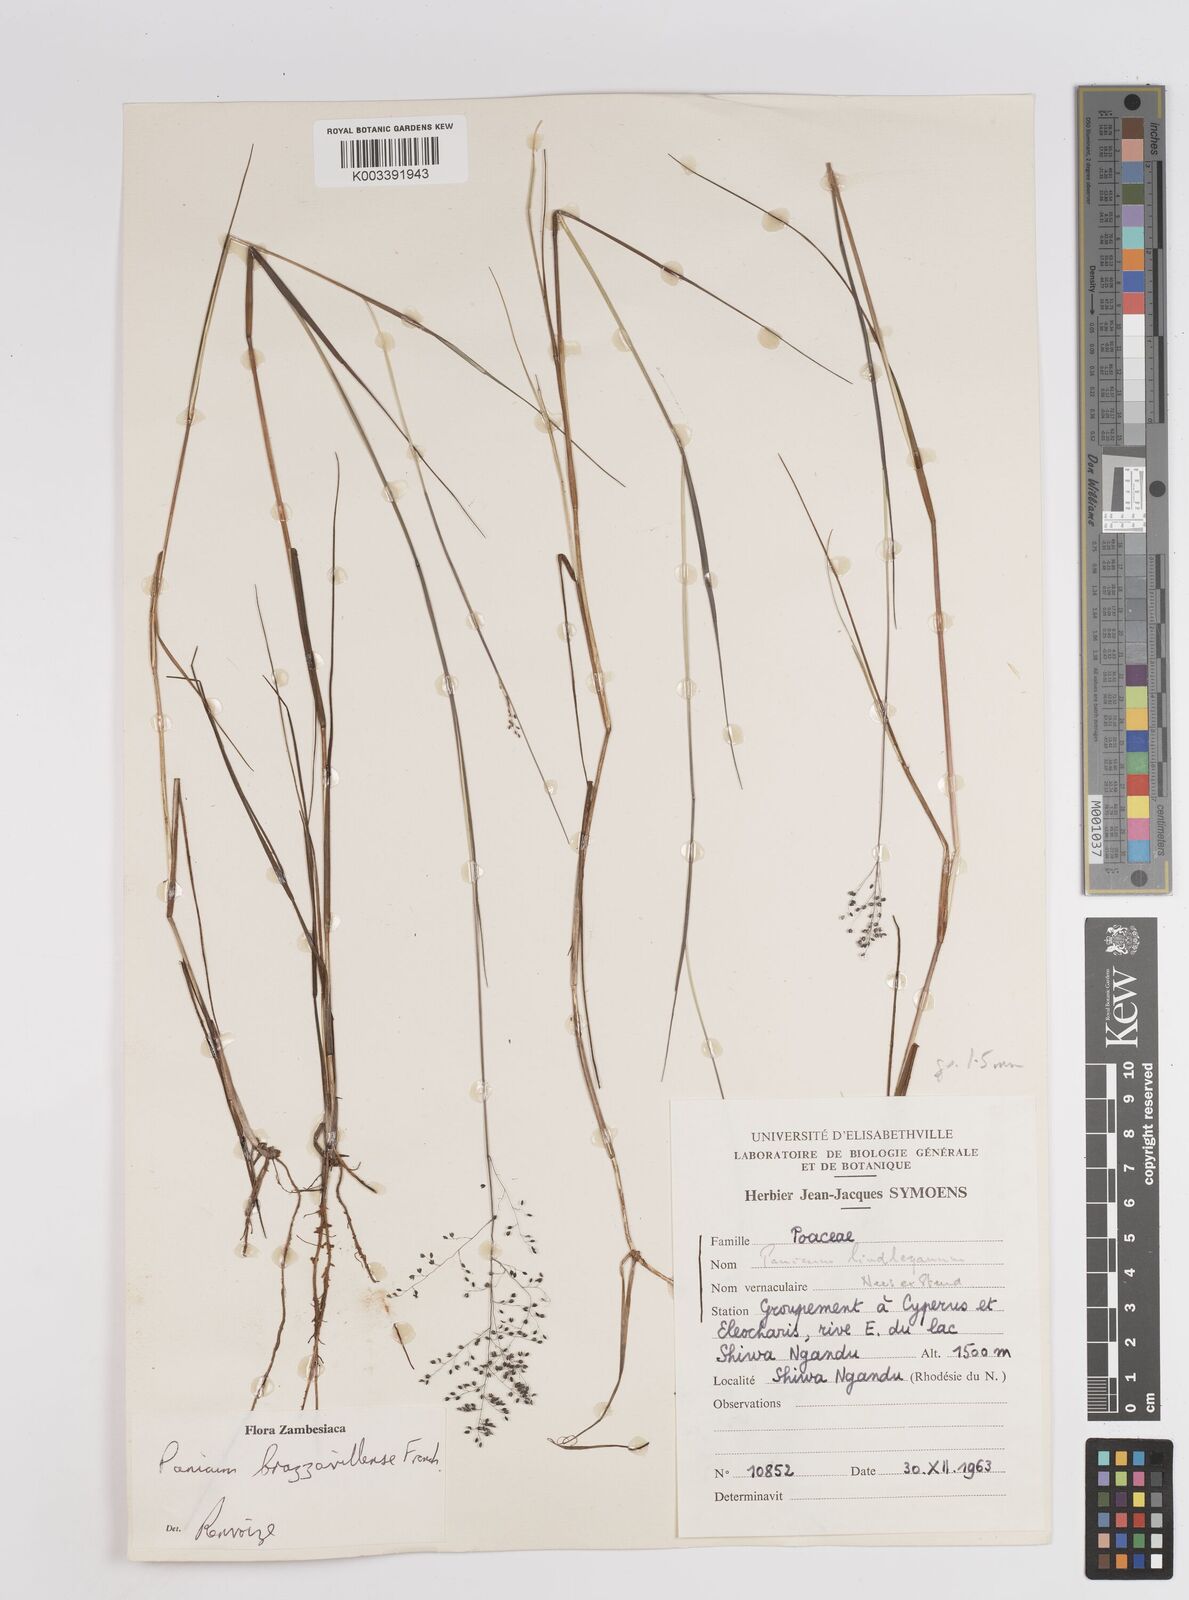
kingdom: Plantae
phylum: Tracheophyta
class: Liliopsida
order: Poales
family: Poaceae
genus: Trichanthecium
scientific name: Trichanthecium brazzavillense
